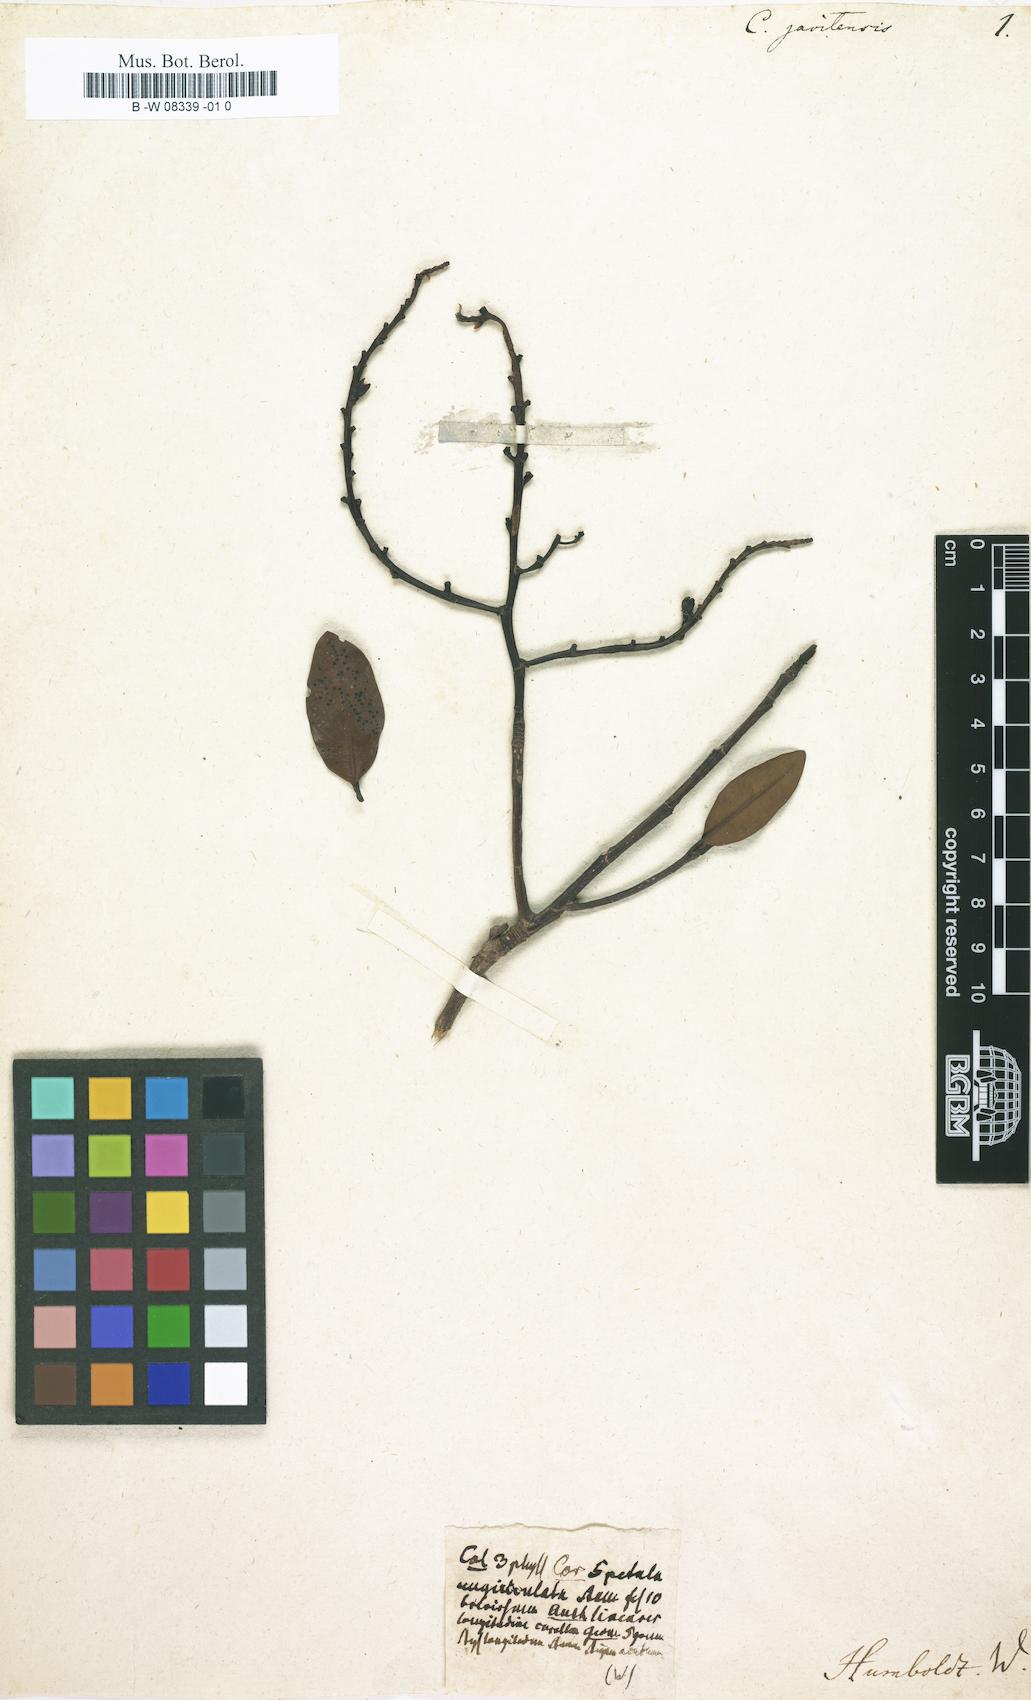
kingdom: Plantae
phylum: Tracheophyta
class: Magnoliopsida
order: Malpighiales
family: Ochnaceae
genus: Ouratea
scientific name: Ouratea Cittorhinchus javitensis
